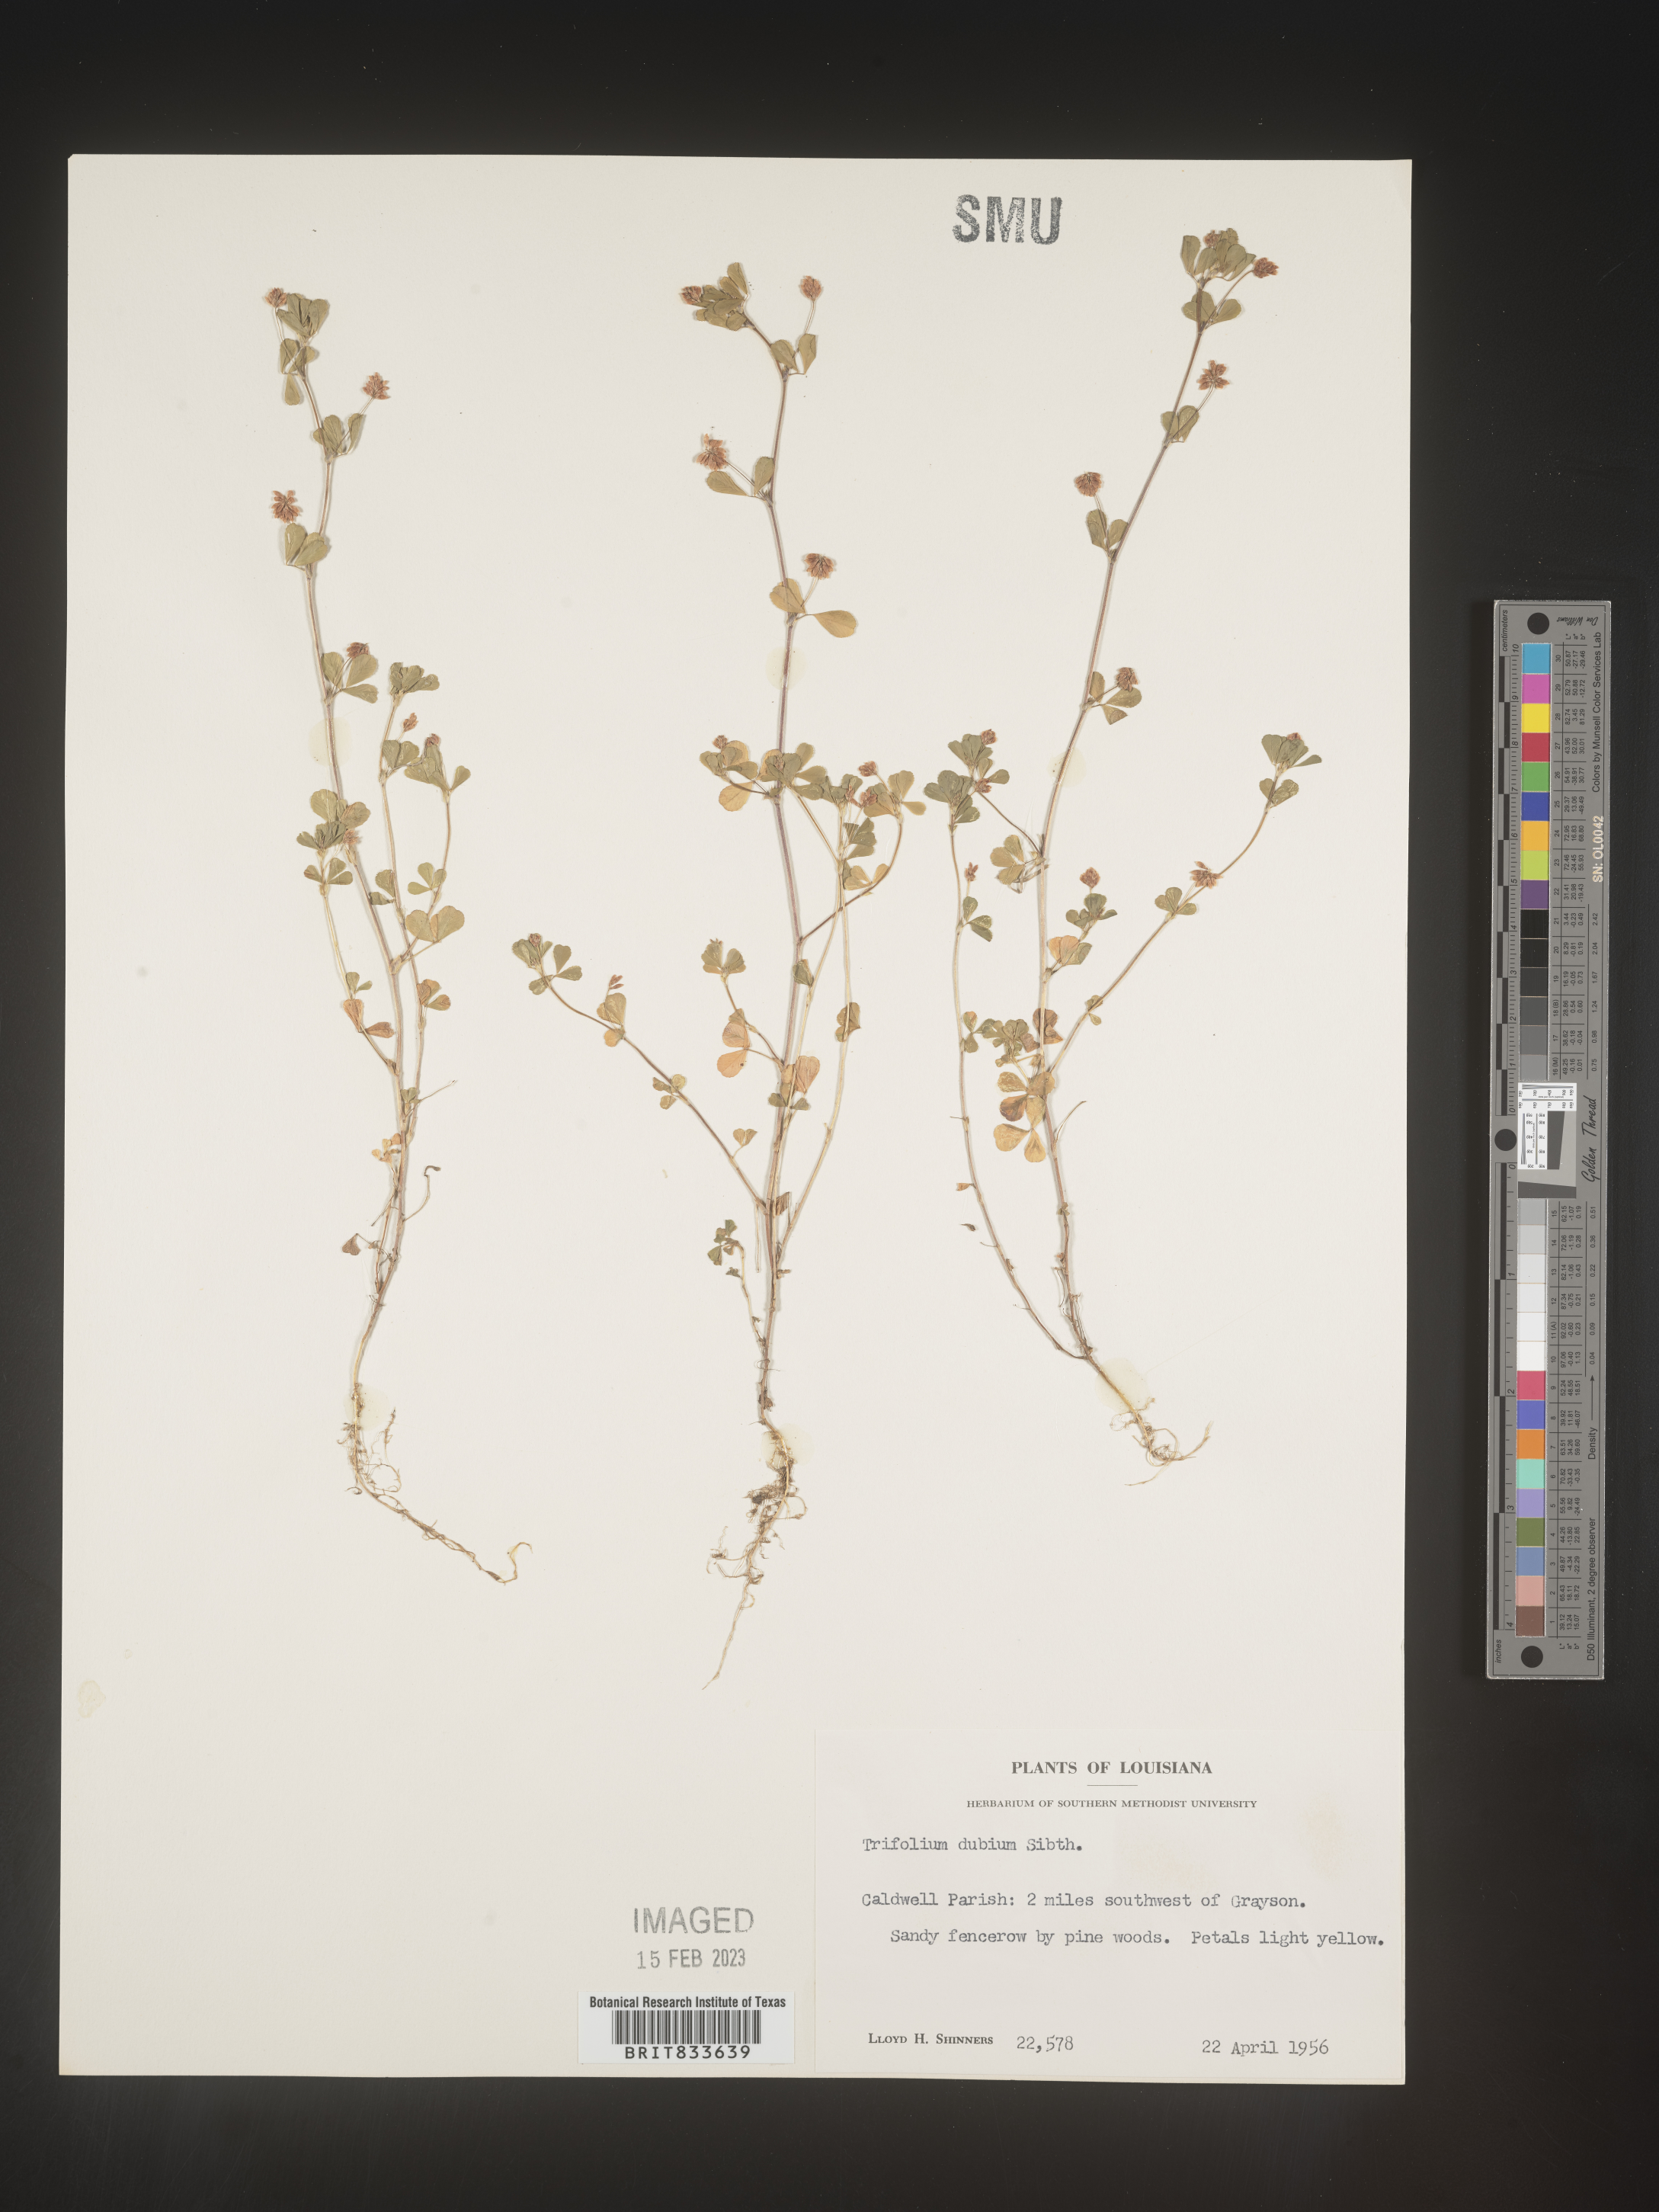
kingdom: Plantae
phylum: Tracheophyta
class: Magnoliopsida
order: Fabales
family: Fabaceae
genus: Trifolium
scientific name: Trifolium dubium
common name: Suckling clover
